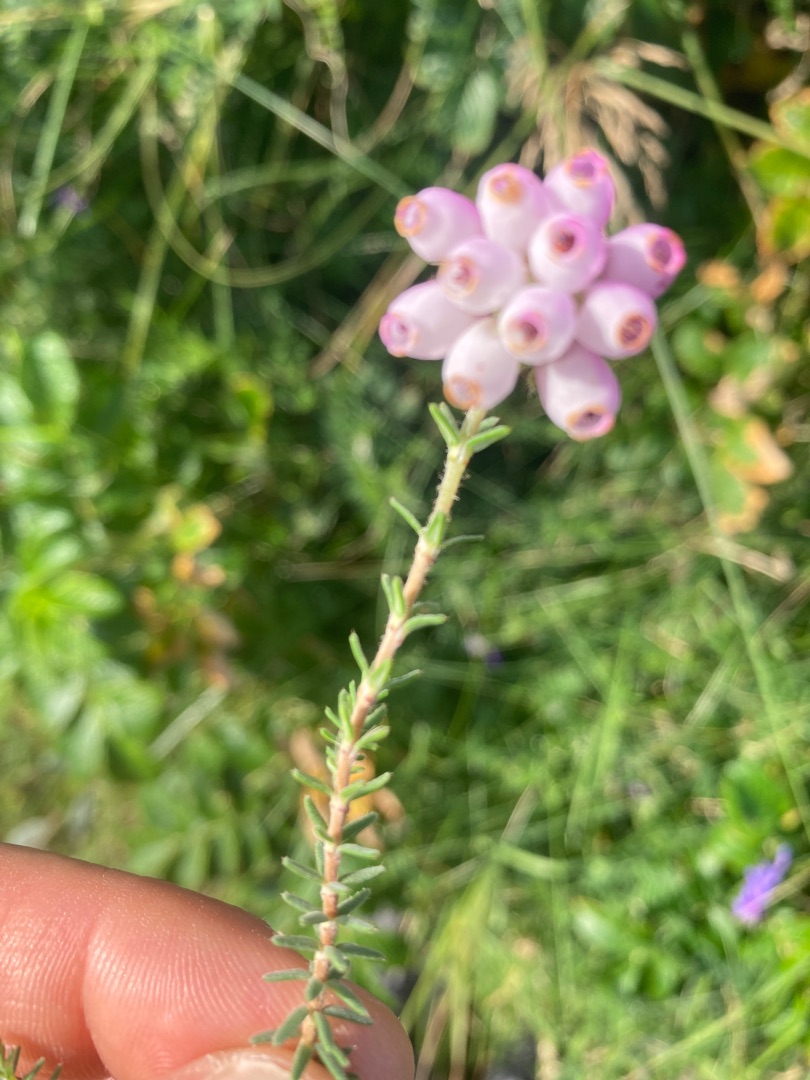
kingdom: Plantae
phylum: Tracheophyta
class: Magnoliopsida
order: Ericales
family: Ericaceae
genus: Erica
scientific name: Erica tetralix
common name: Klokkelyng
